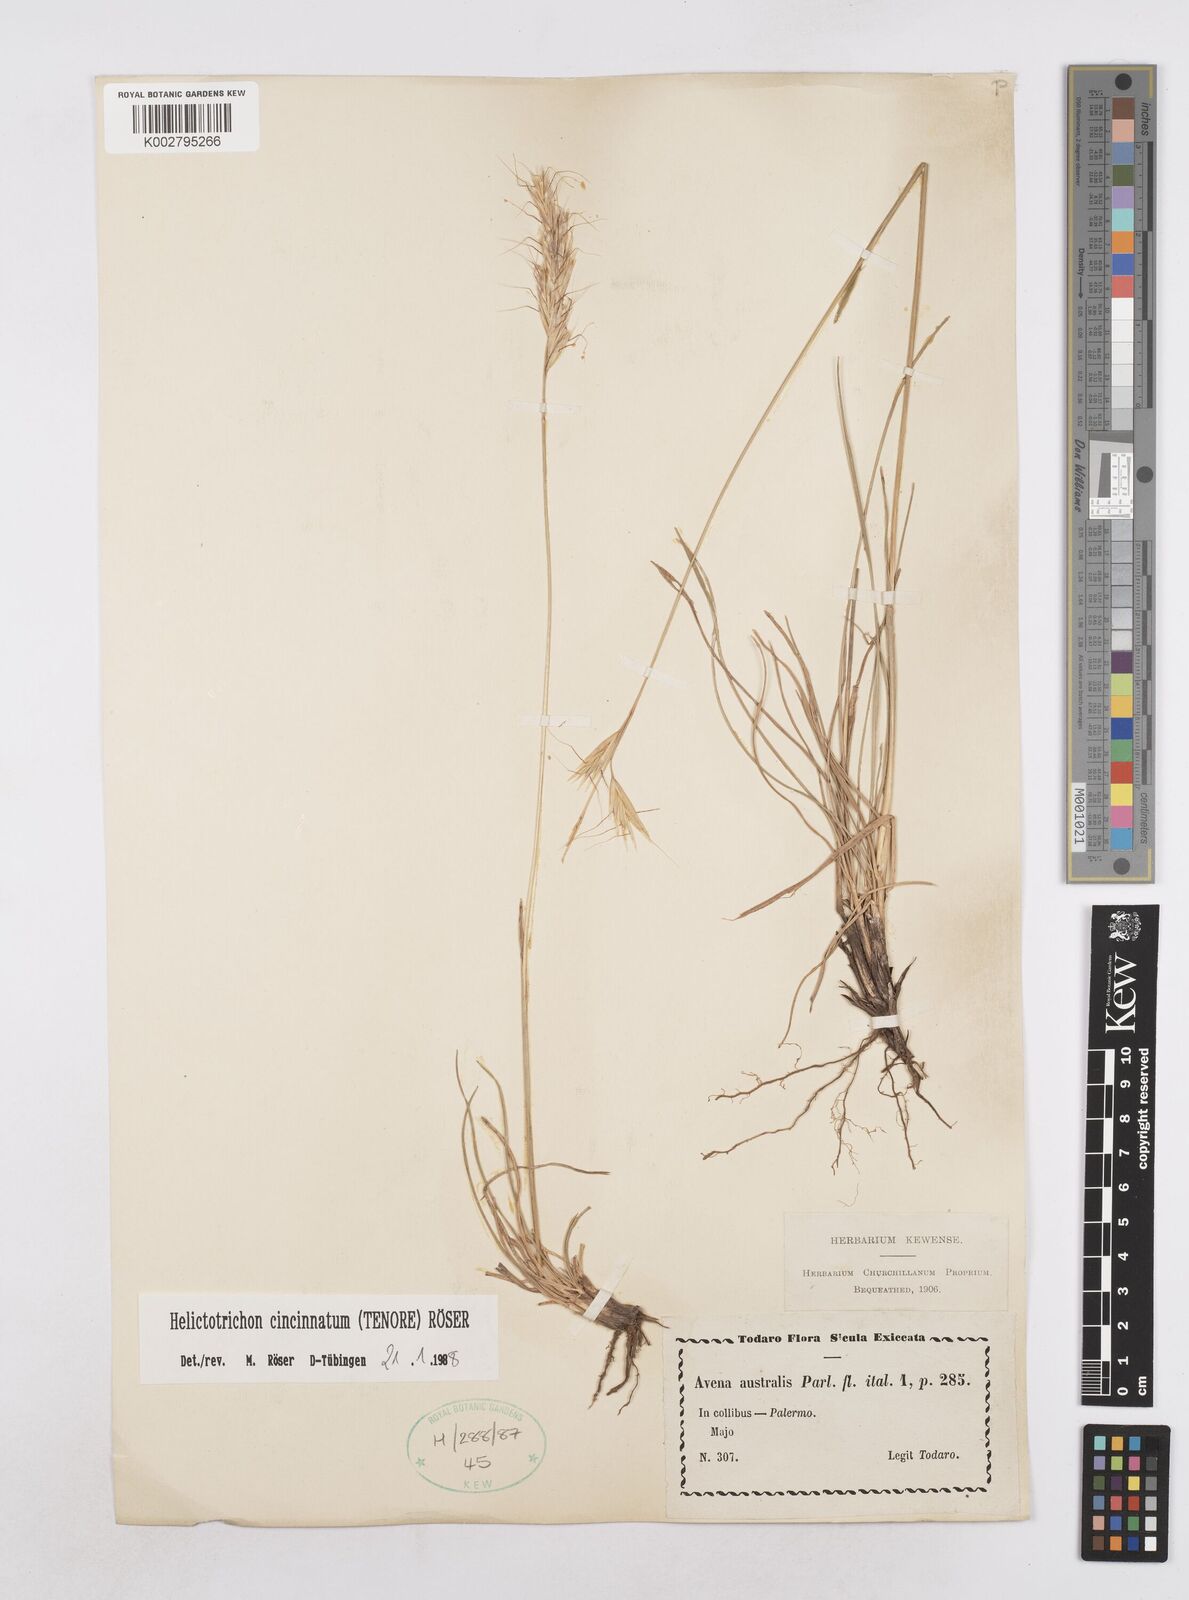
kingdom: Plantae
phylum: Tracheophyta
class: Liliopsida
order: Poales
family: Poaceae
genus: Helictochloa
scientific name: Helictochloa cincinnata
